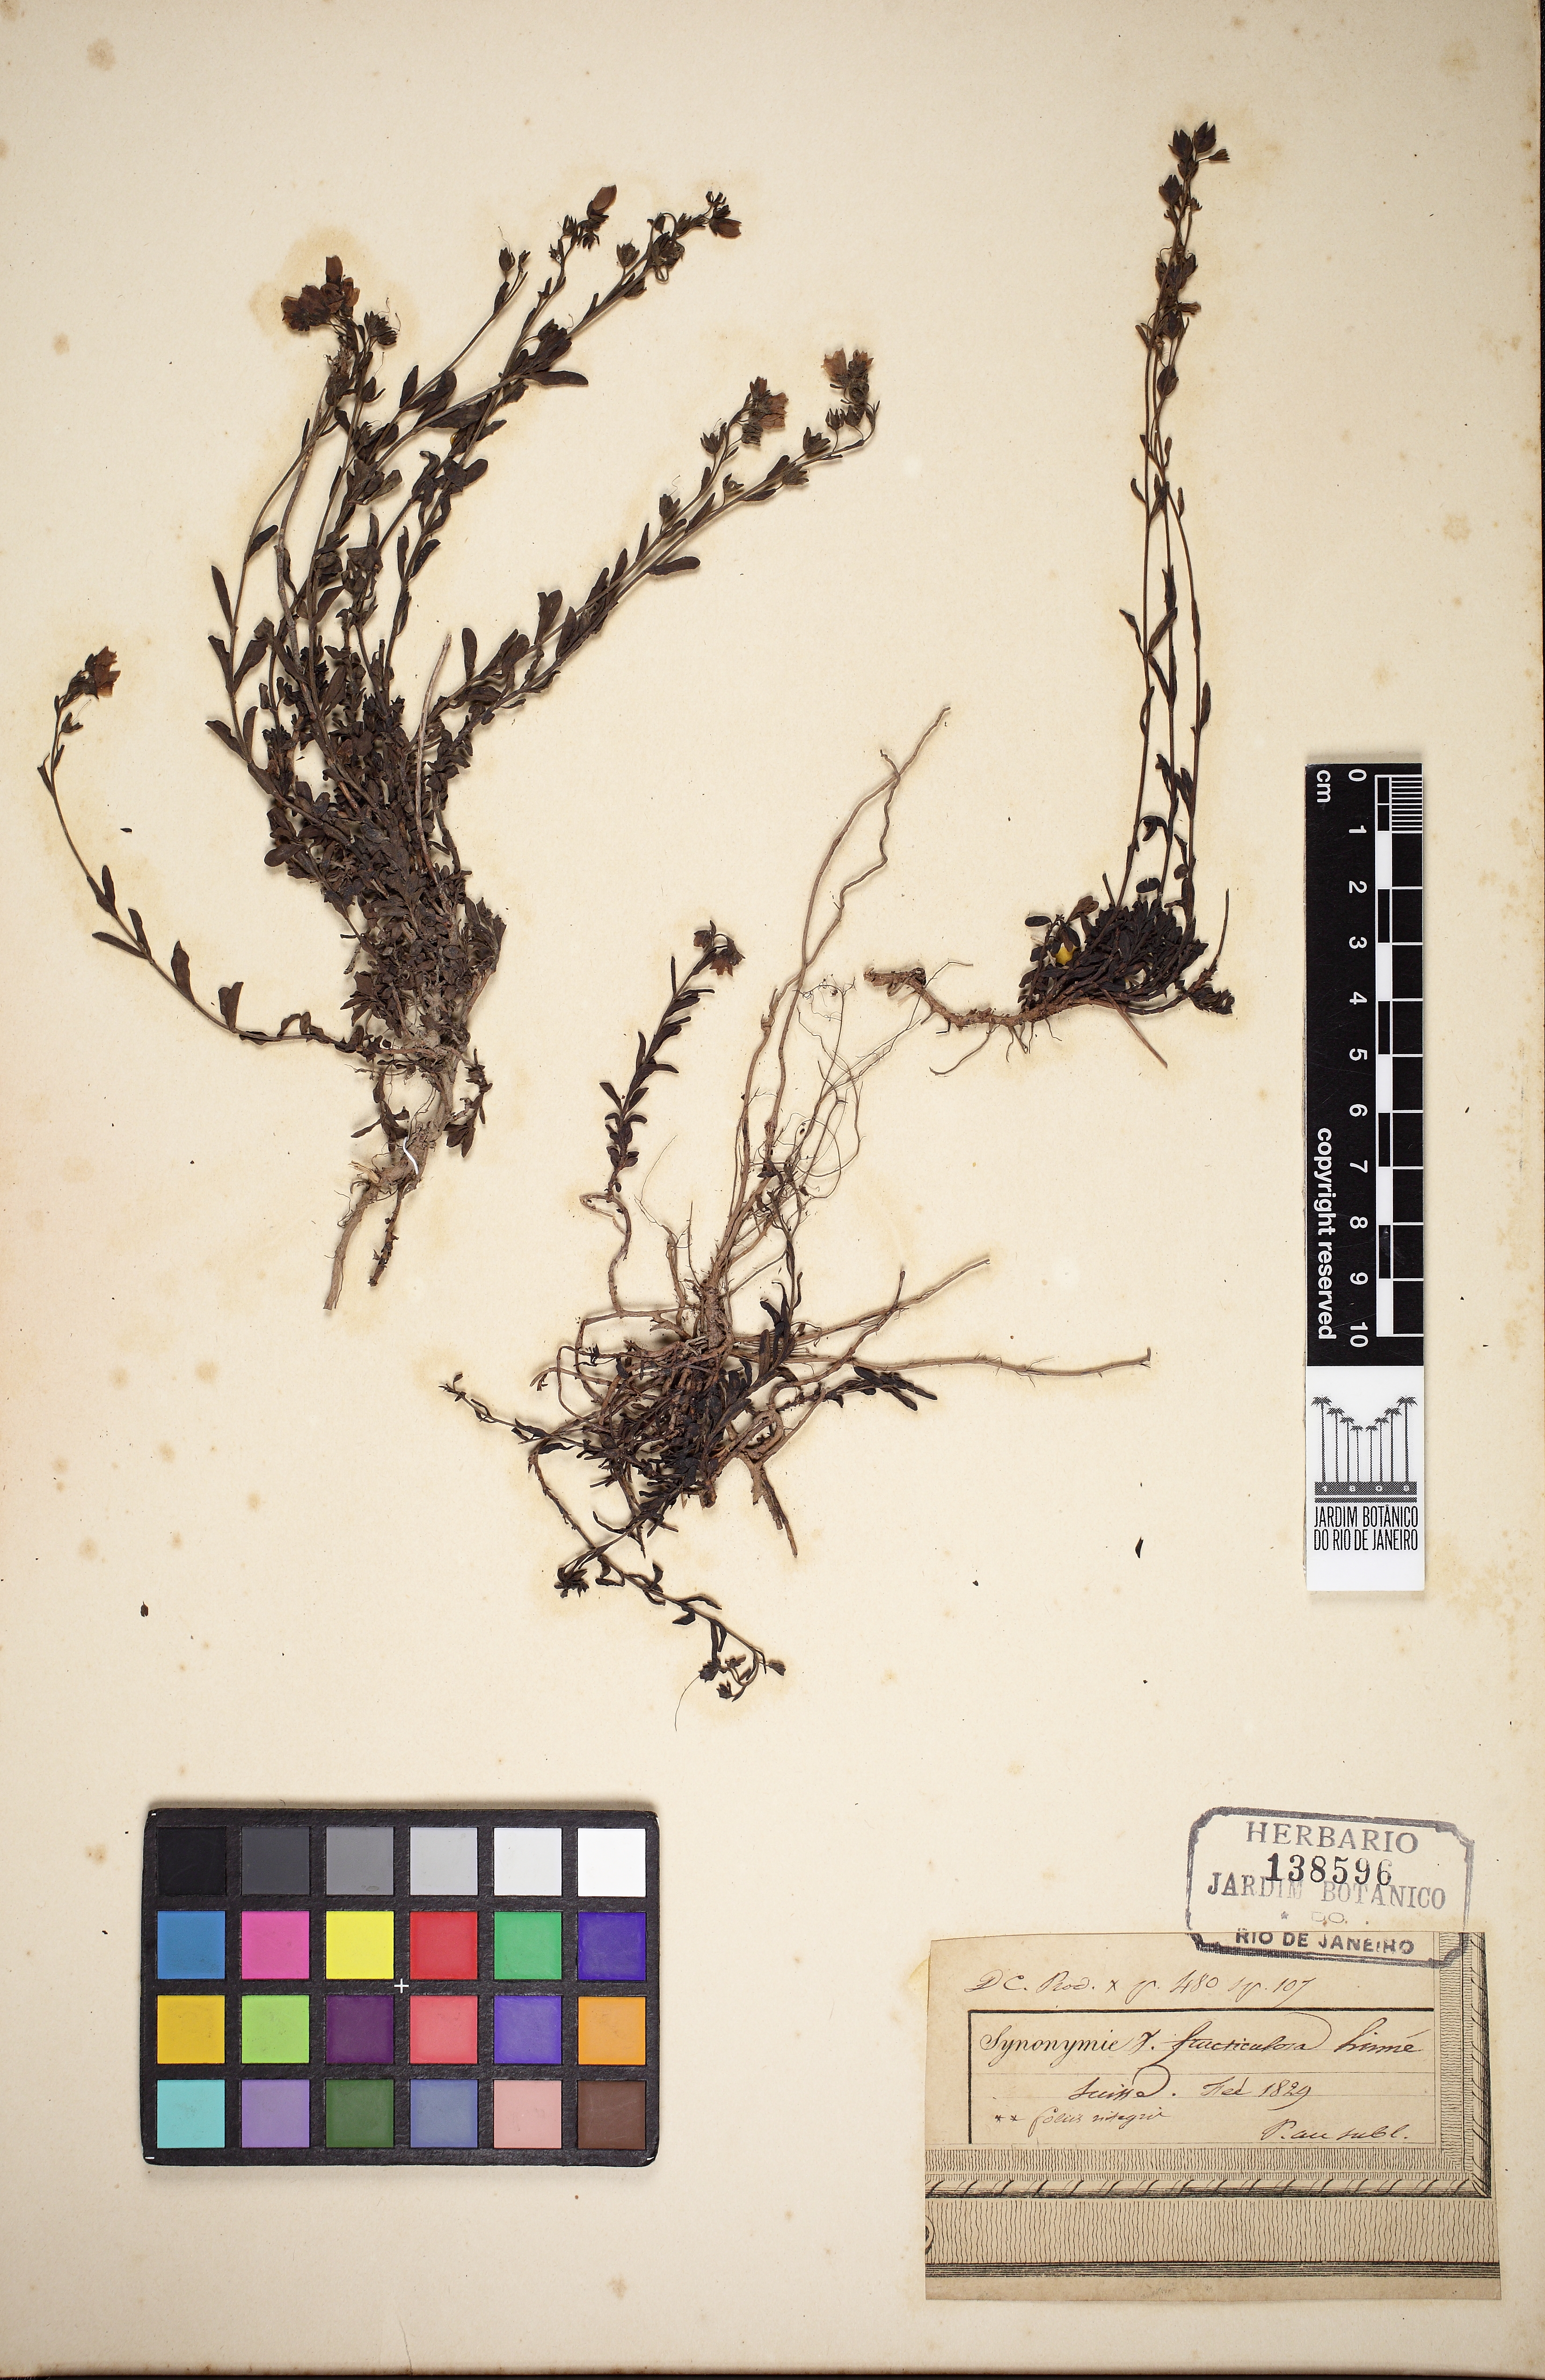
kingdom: Plantae
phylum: Tracheophyta
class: Magnoliopsida
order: Lamiales
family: Plantaginaceae
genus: Veronica
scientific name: Veronica fruticulosa
